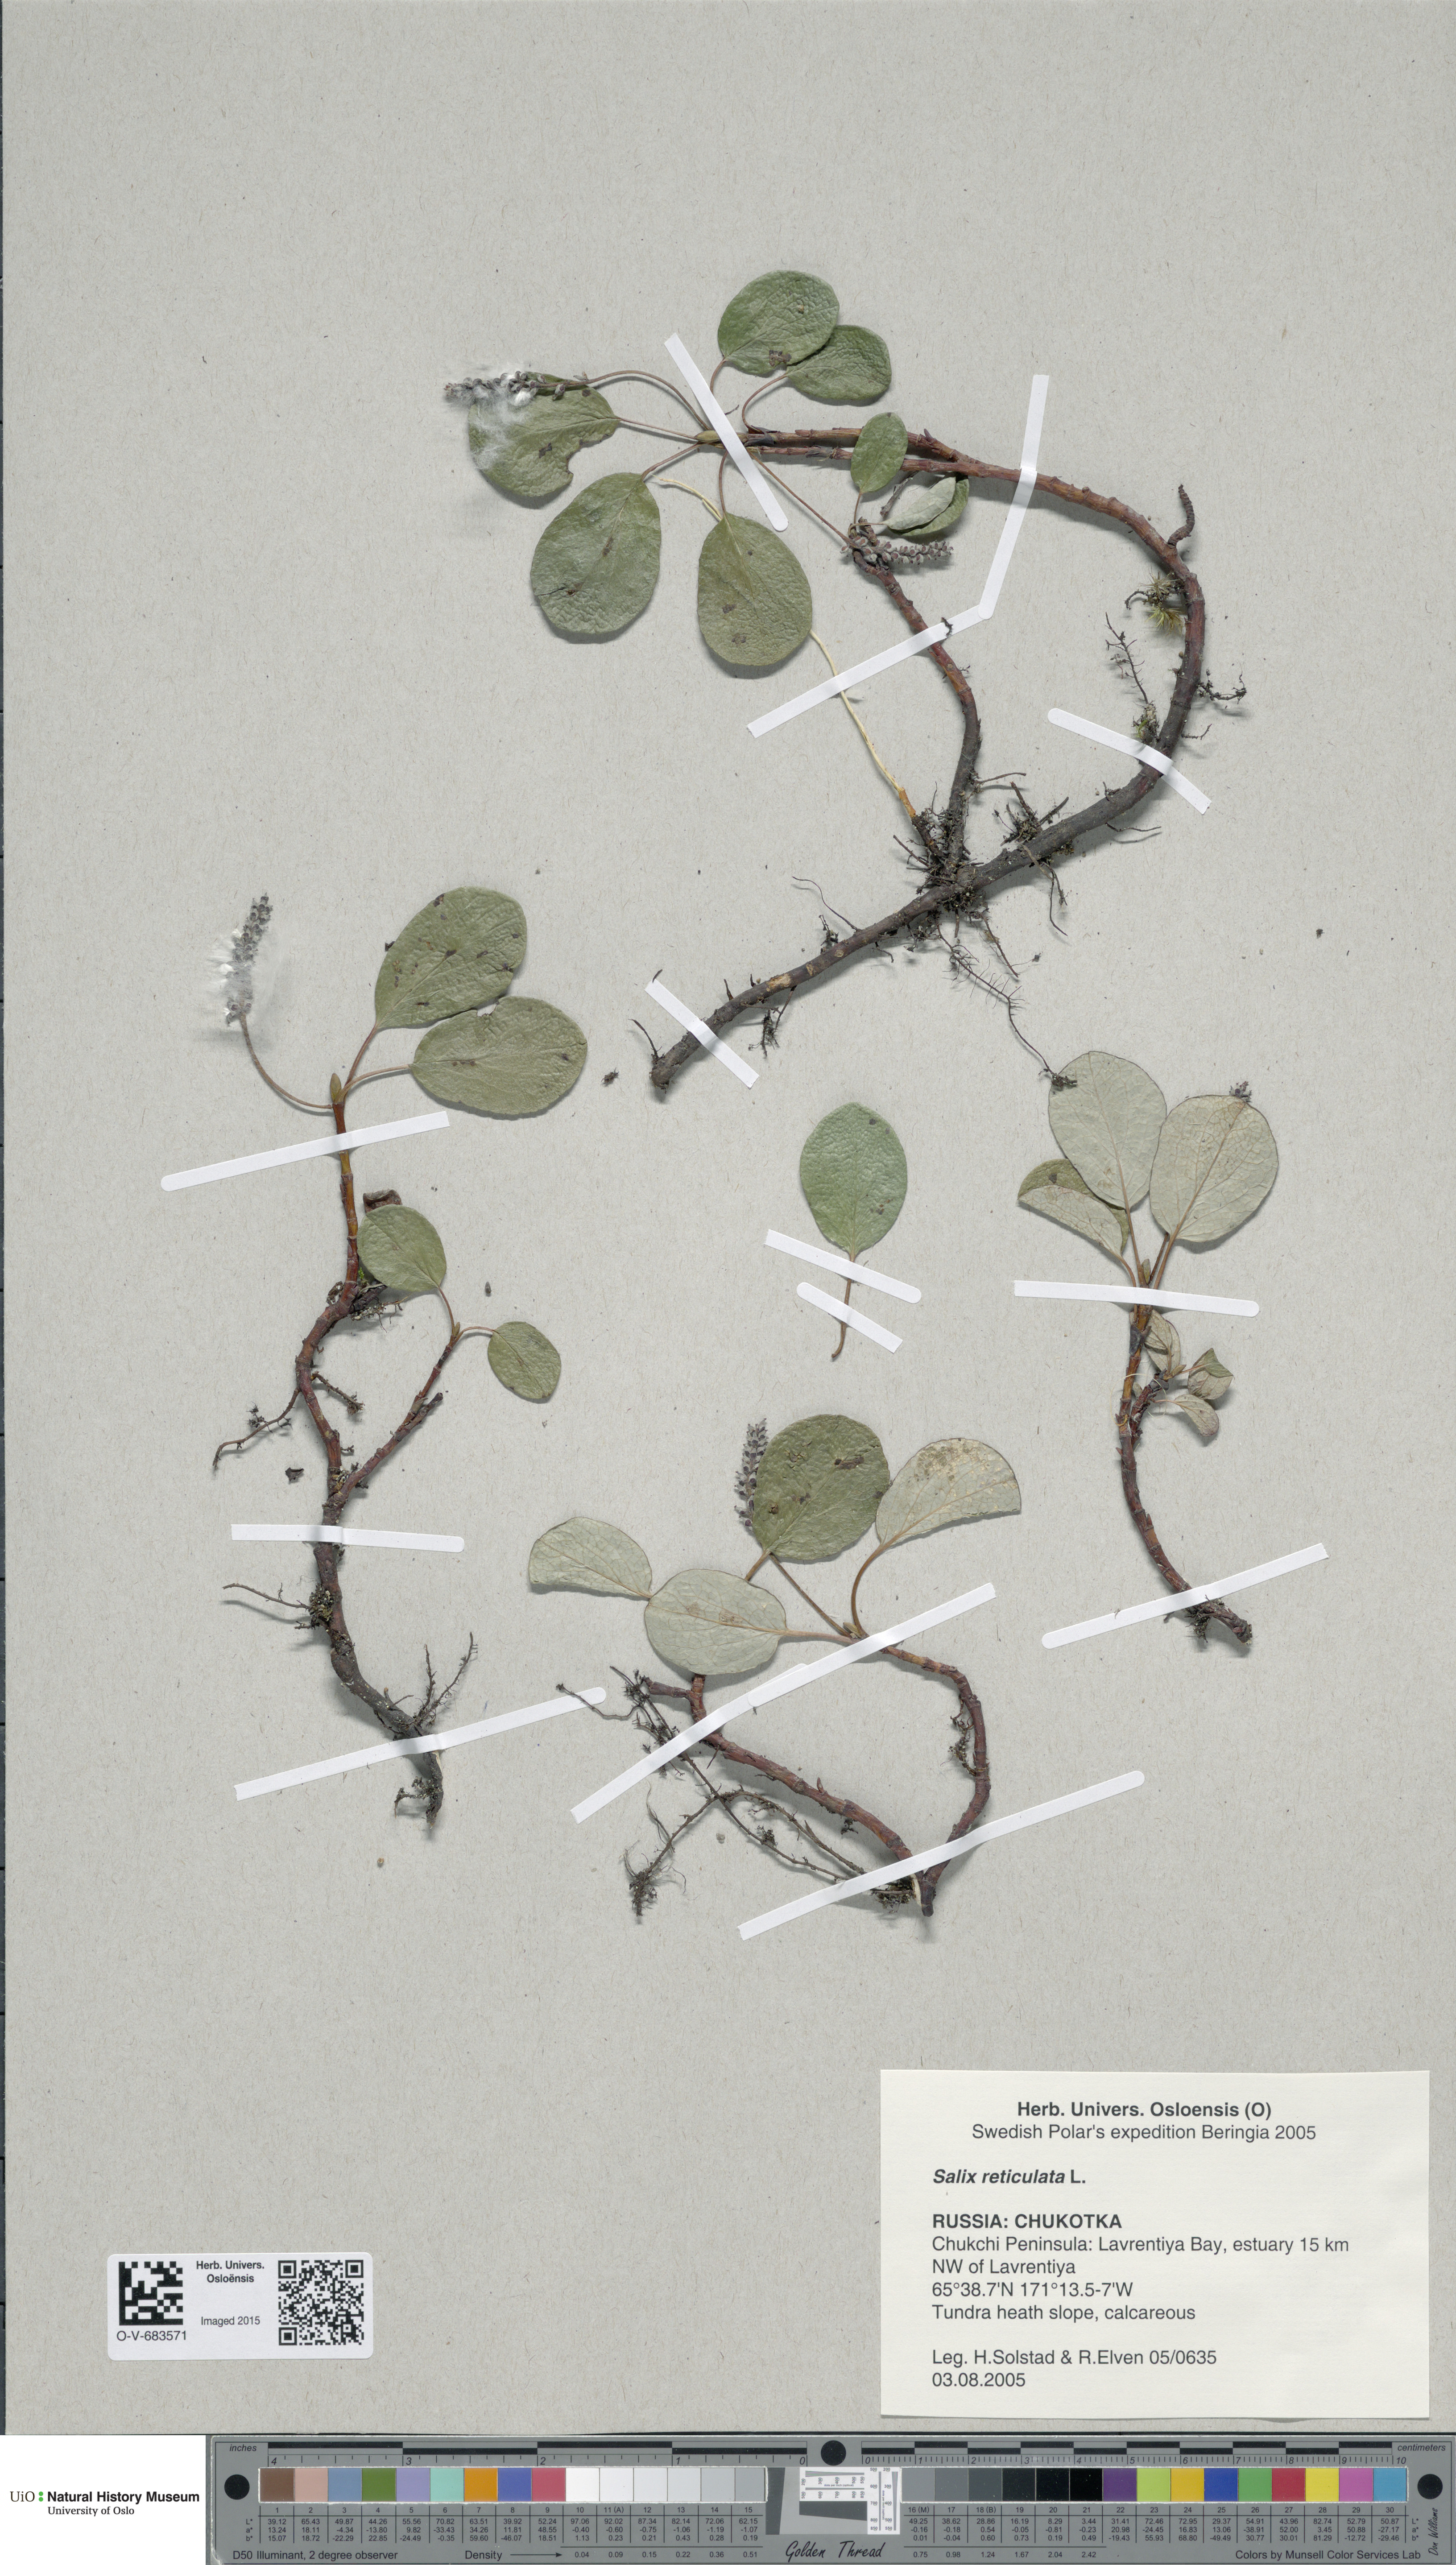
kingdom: Plantae
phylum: Tracheophyta
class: Magnoliopsida
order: Malpighiales
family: Salicaceae
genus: Salix
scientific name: Salix reticulata
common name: Net-leaved willow
